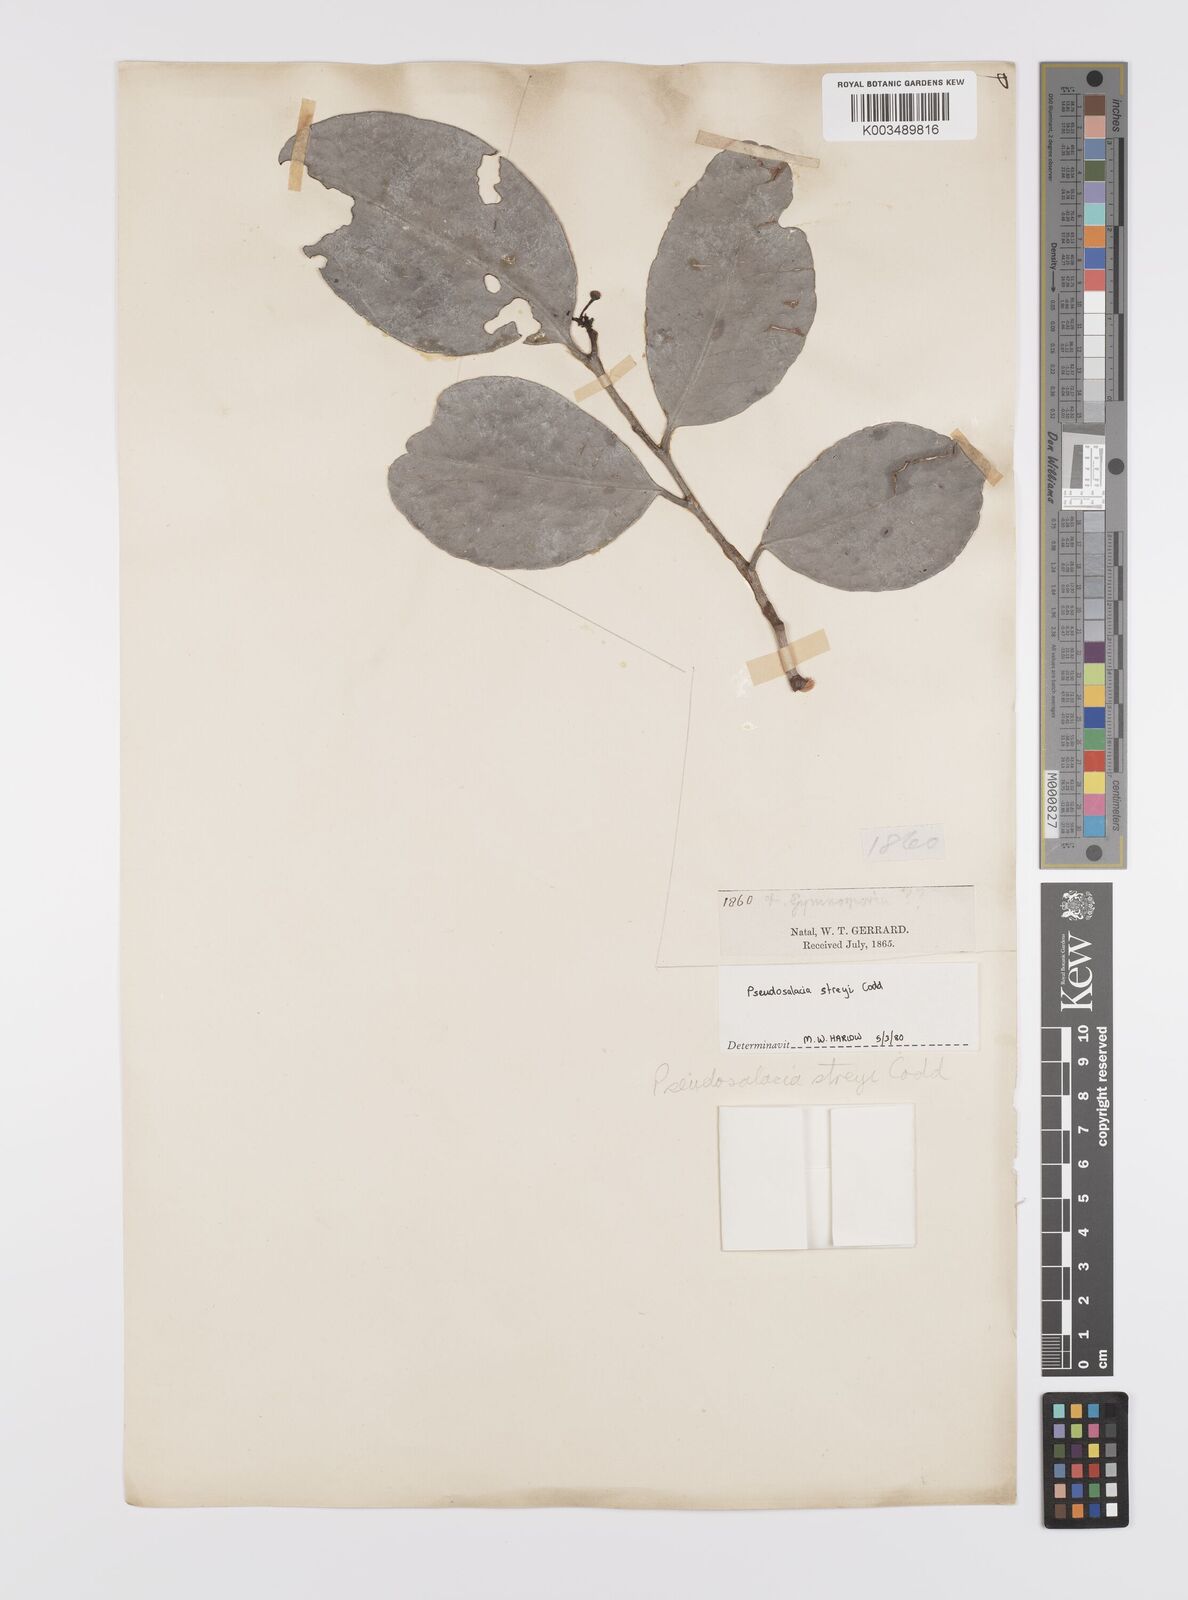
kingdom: Plantae
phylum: Tracheophyta
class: Magnoliopsida
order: Celastrales
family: Celastraceae
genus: Pseudosalacia
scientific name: Pseudosalacia streyi
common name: Bastard lemon
